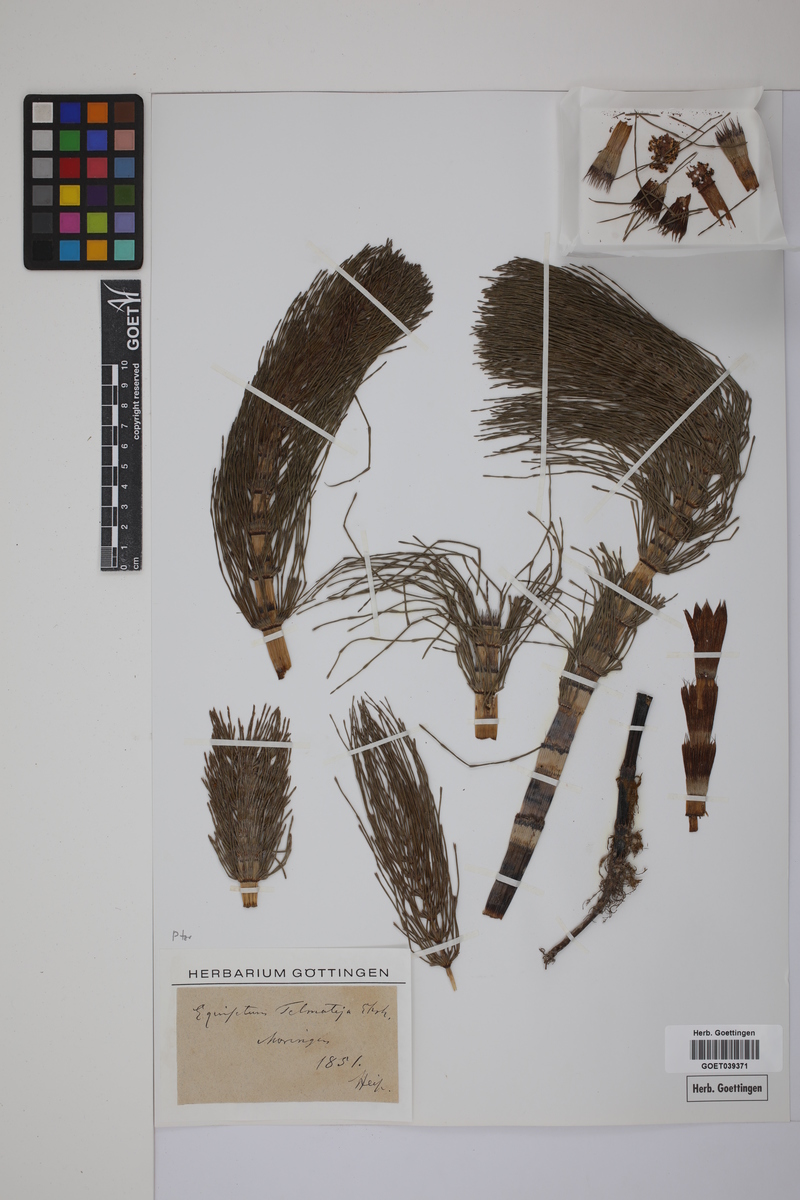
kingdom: Plantae
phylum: Tracheophyta
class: Polypodiopsida
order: Equisetales
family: Equisetaceae
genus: Equisetum
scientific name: Equisetum telmateia
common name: Great horsetail
